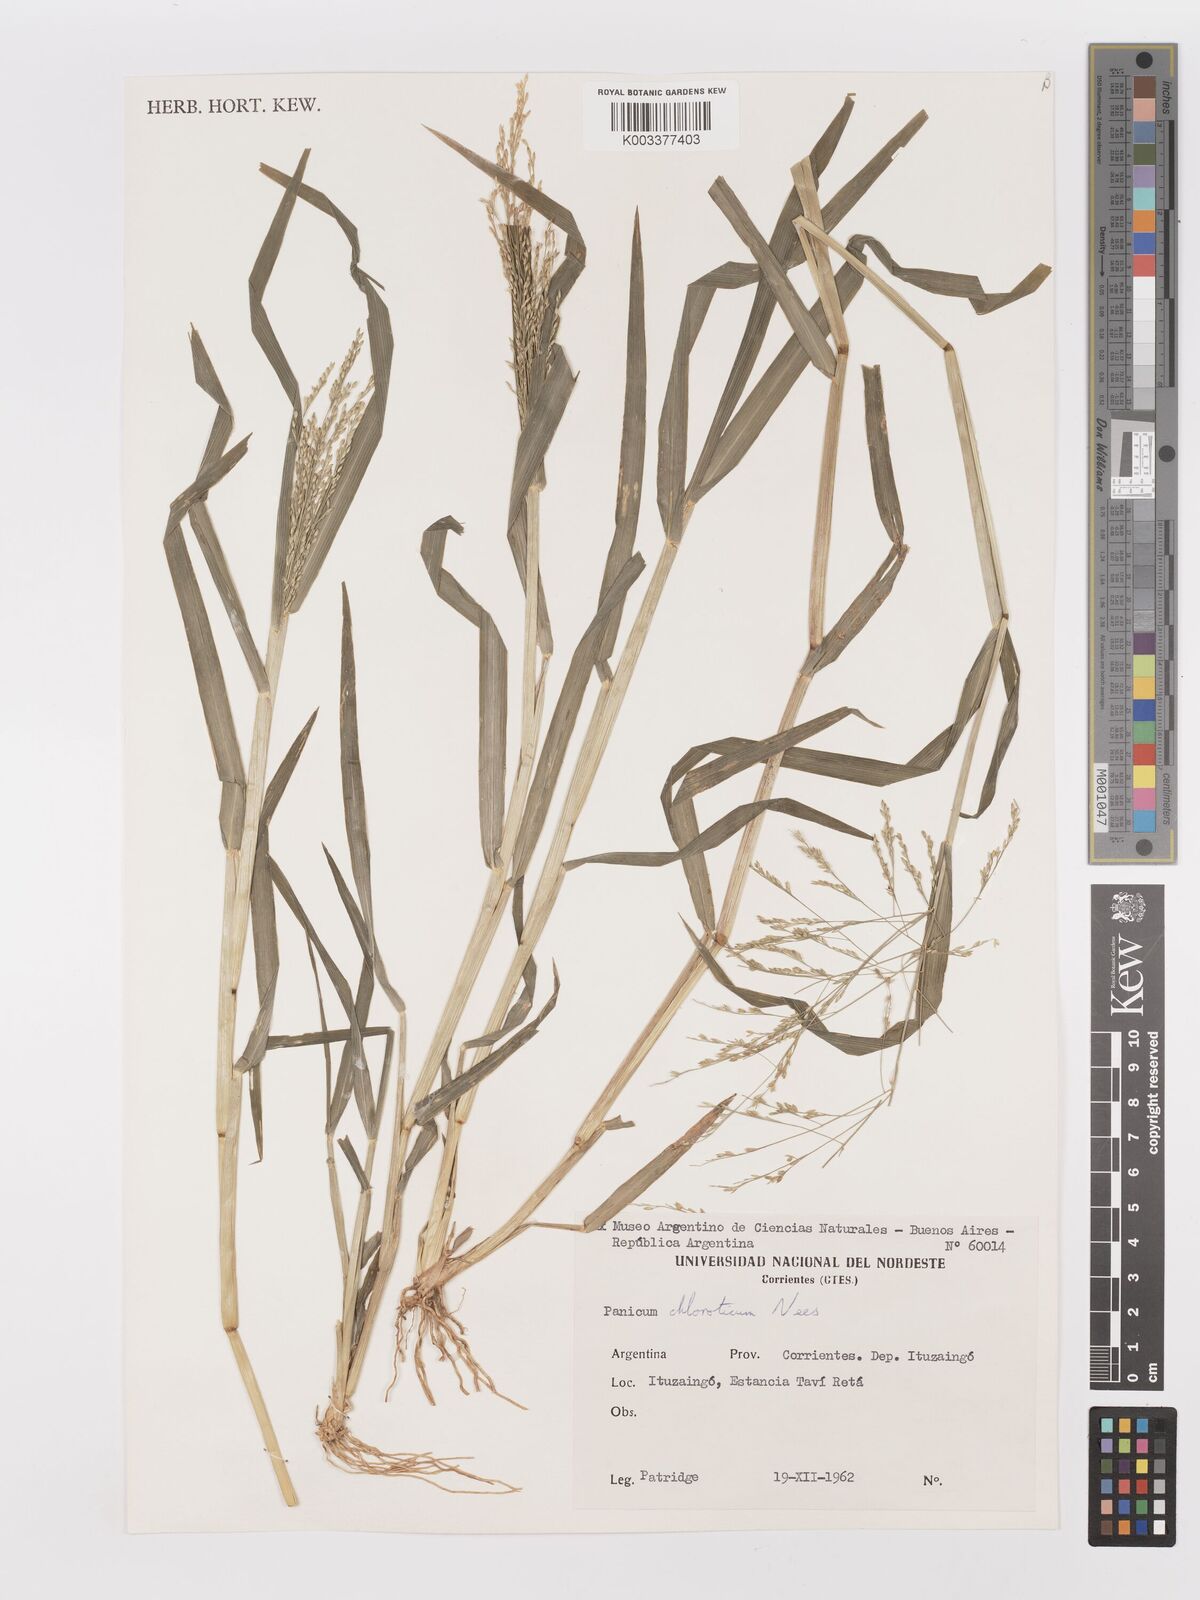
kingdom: Plantae
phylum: Tracheophyta
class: Liliopsida
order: Poales
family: Poaceae
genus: Panicum
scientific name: Panicum dichotomiflorum
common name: Autumn millet
